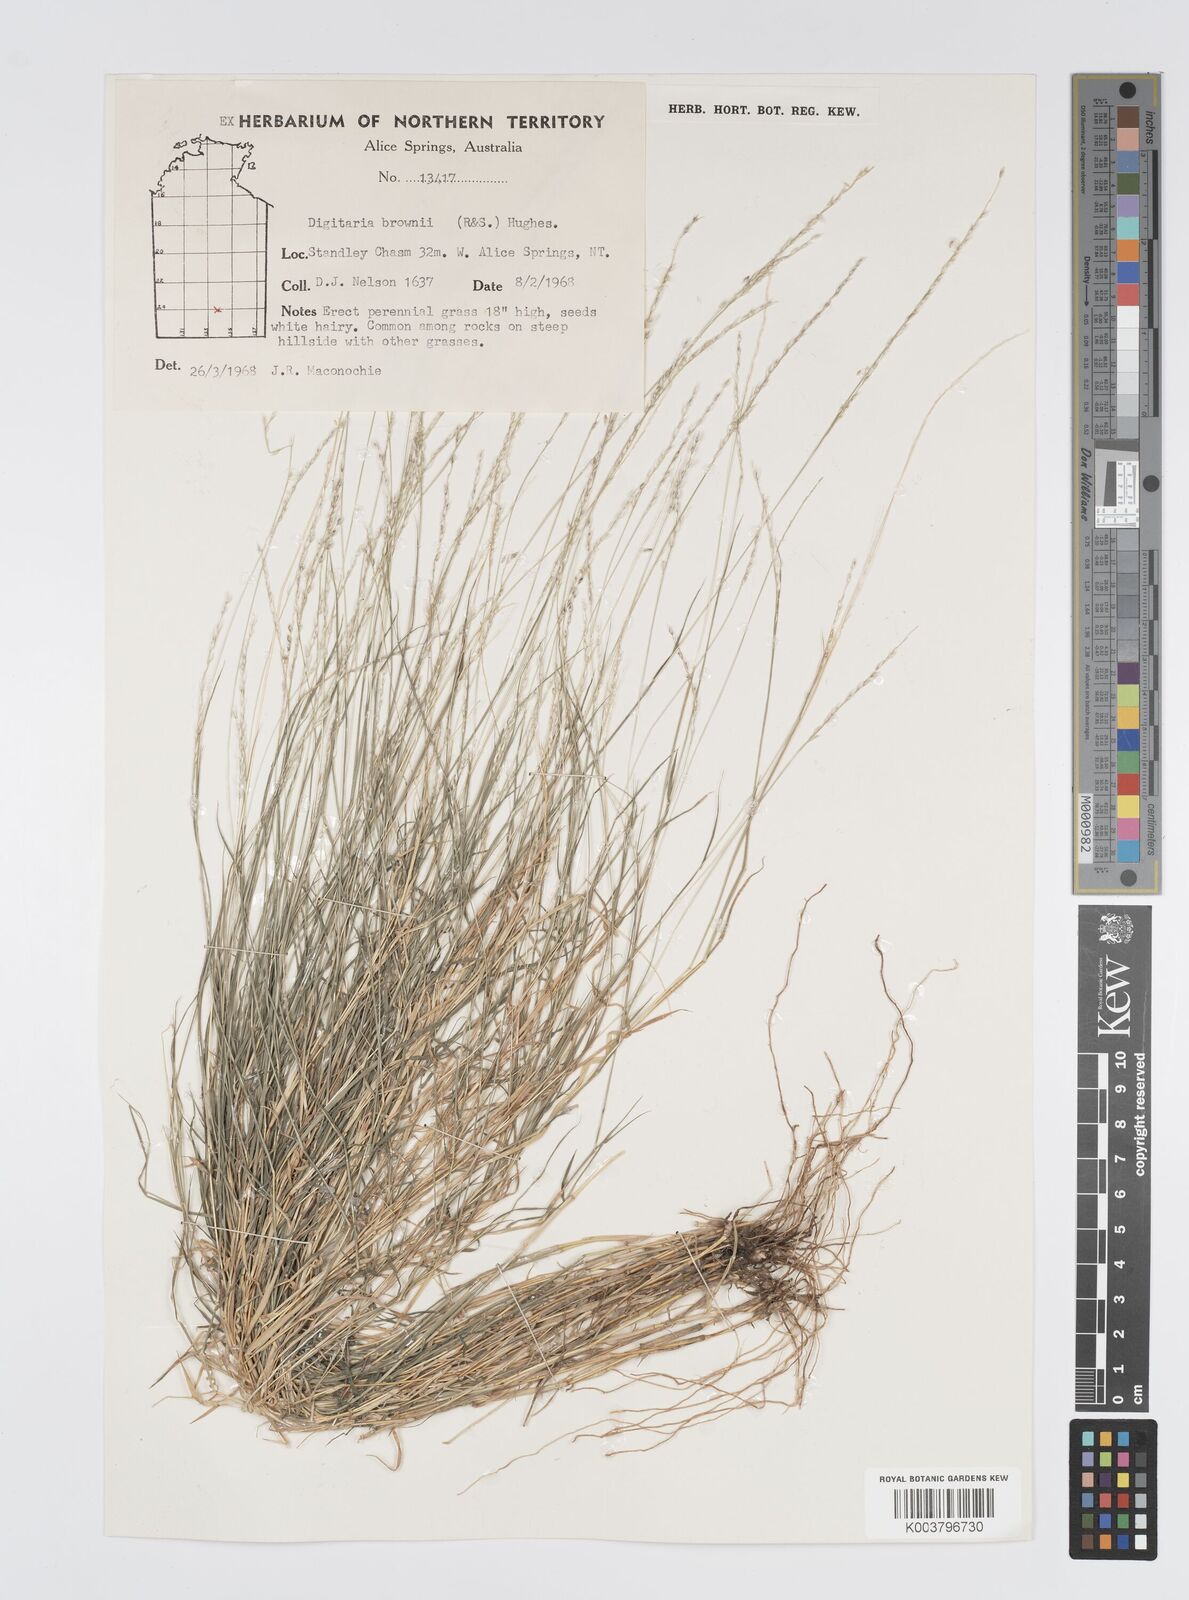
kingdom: Plantae
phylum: Tracheophyta
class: Liliopsida
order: Poales
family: Poaceae
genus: Digitaria
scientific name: Digitaria brownii
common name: Cotton grass
